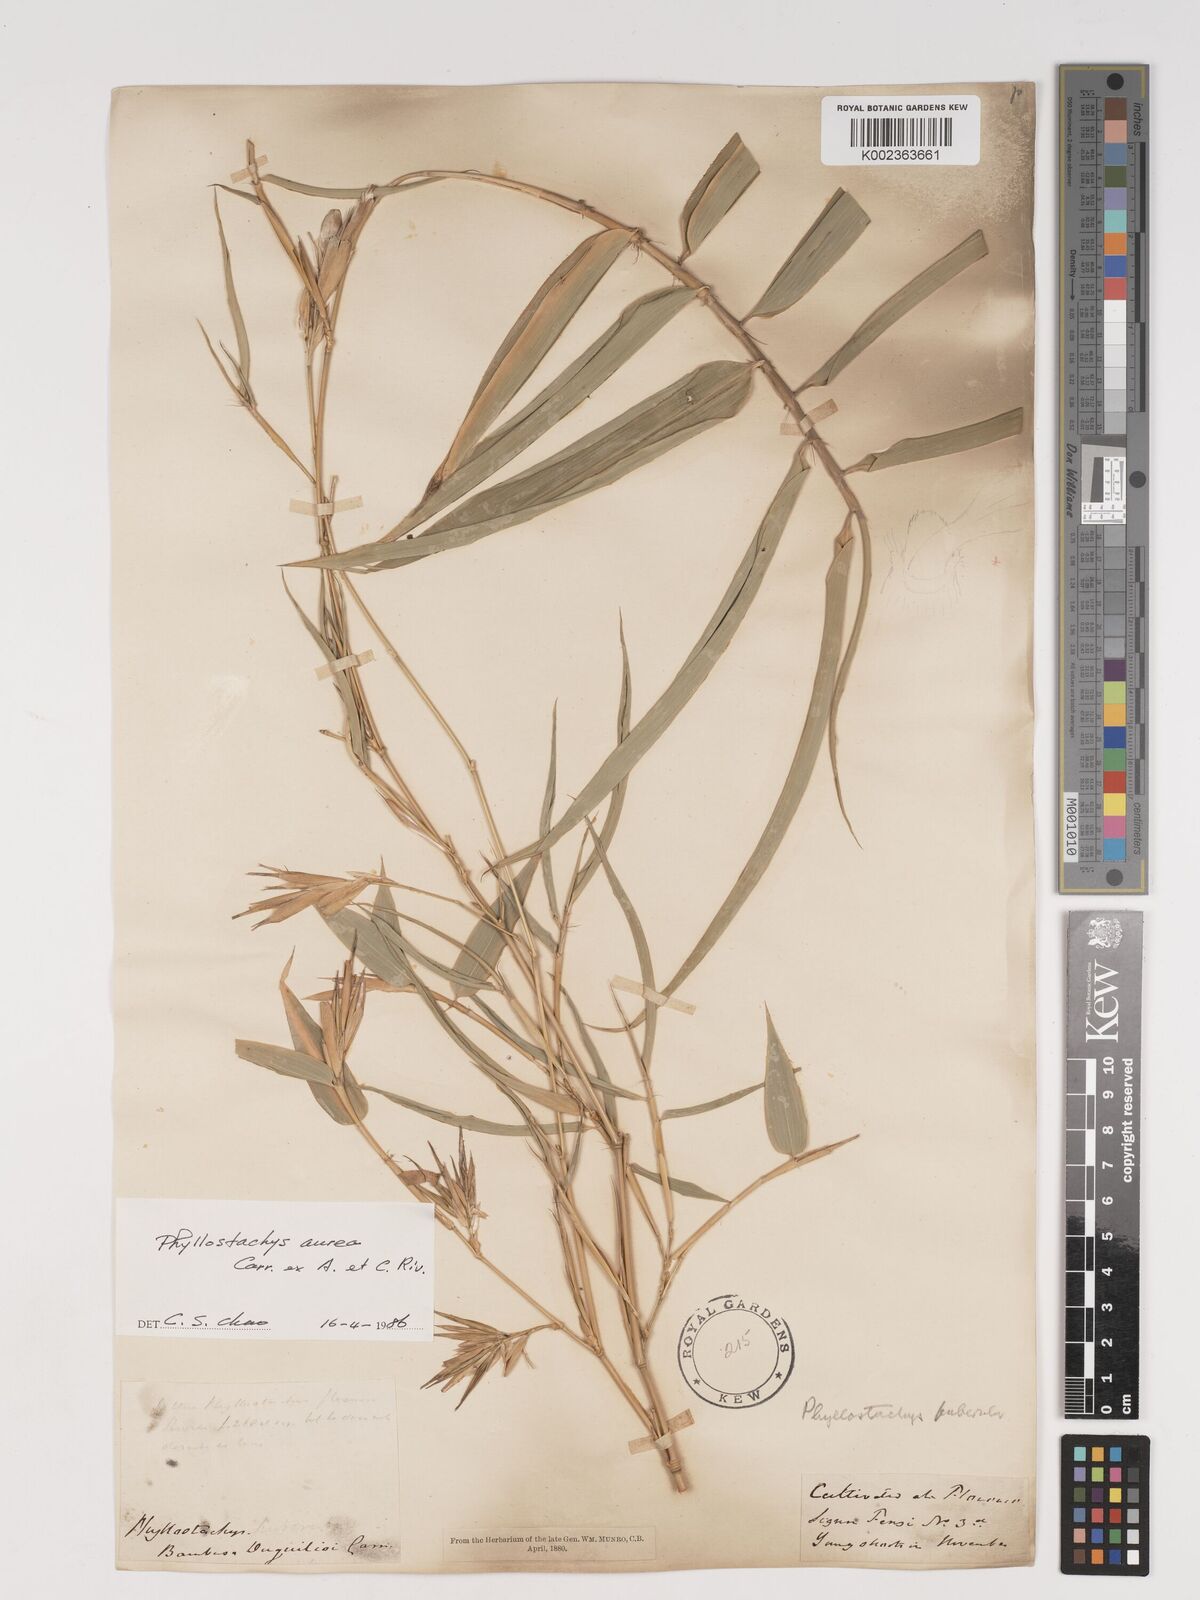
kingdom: Plantae
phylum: Tracheophyta
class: Liliopsida
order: Poales
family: Poaceae
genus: Phyllostachys
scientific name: Phyllostachys aurea
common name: Golden bamboo
